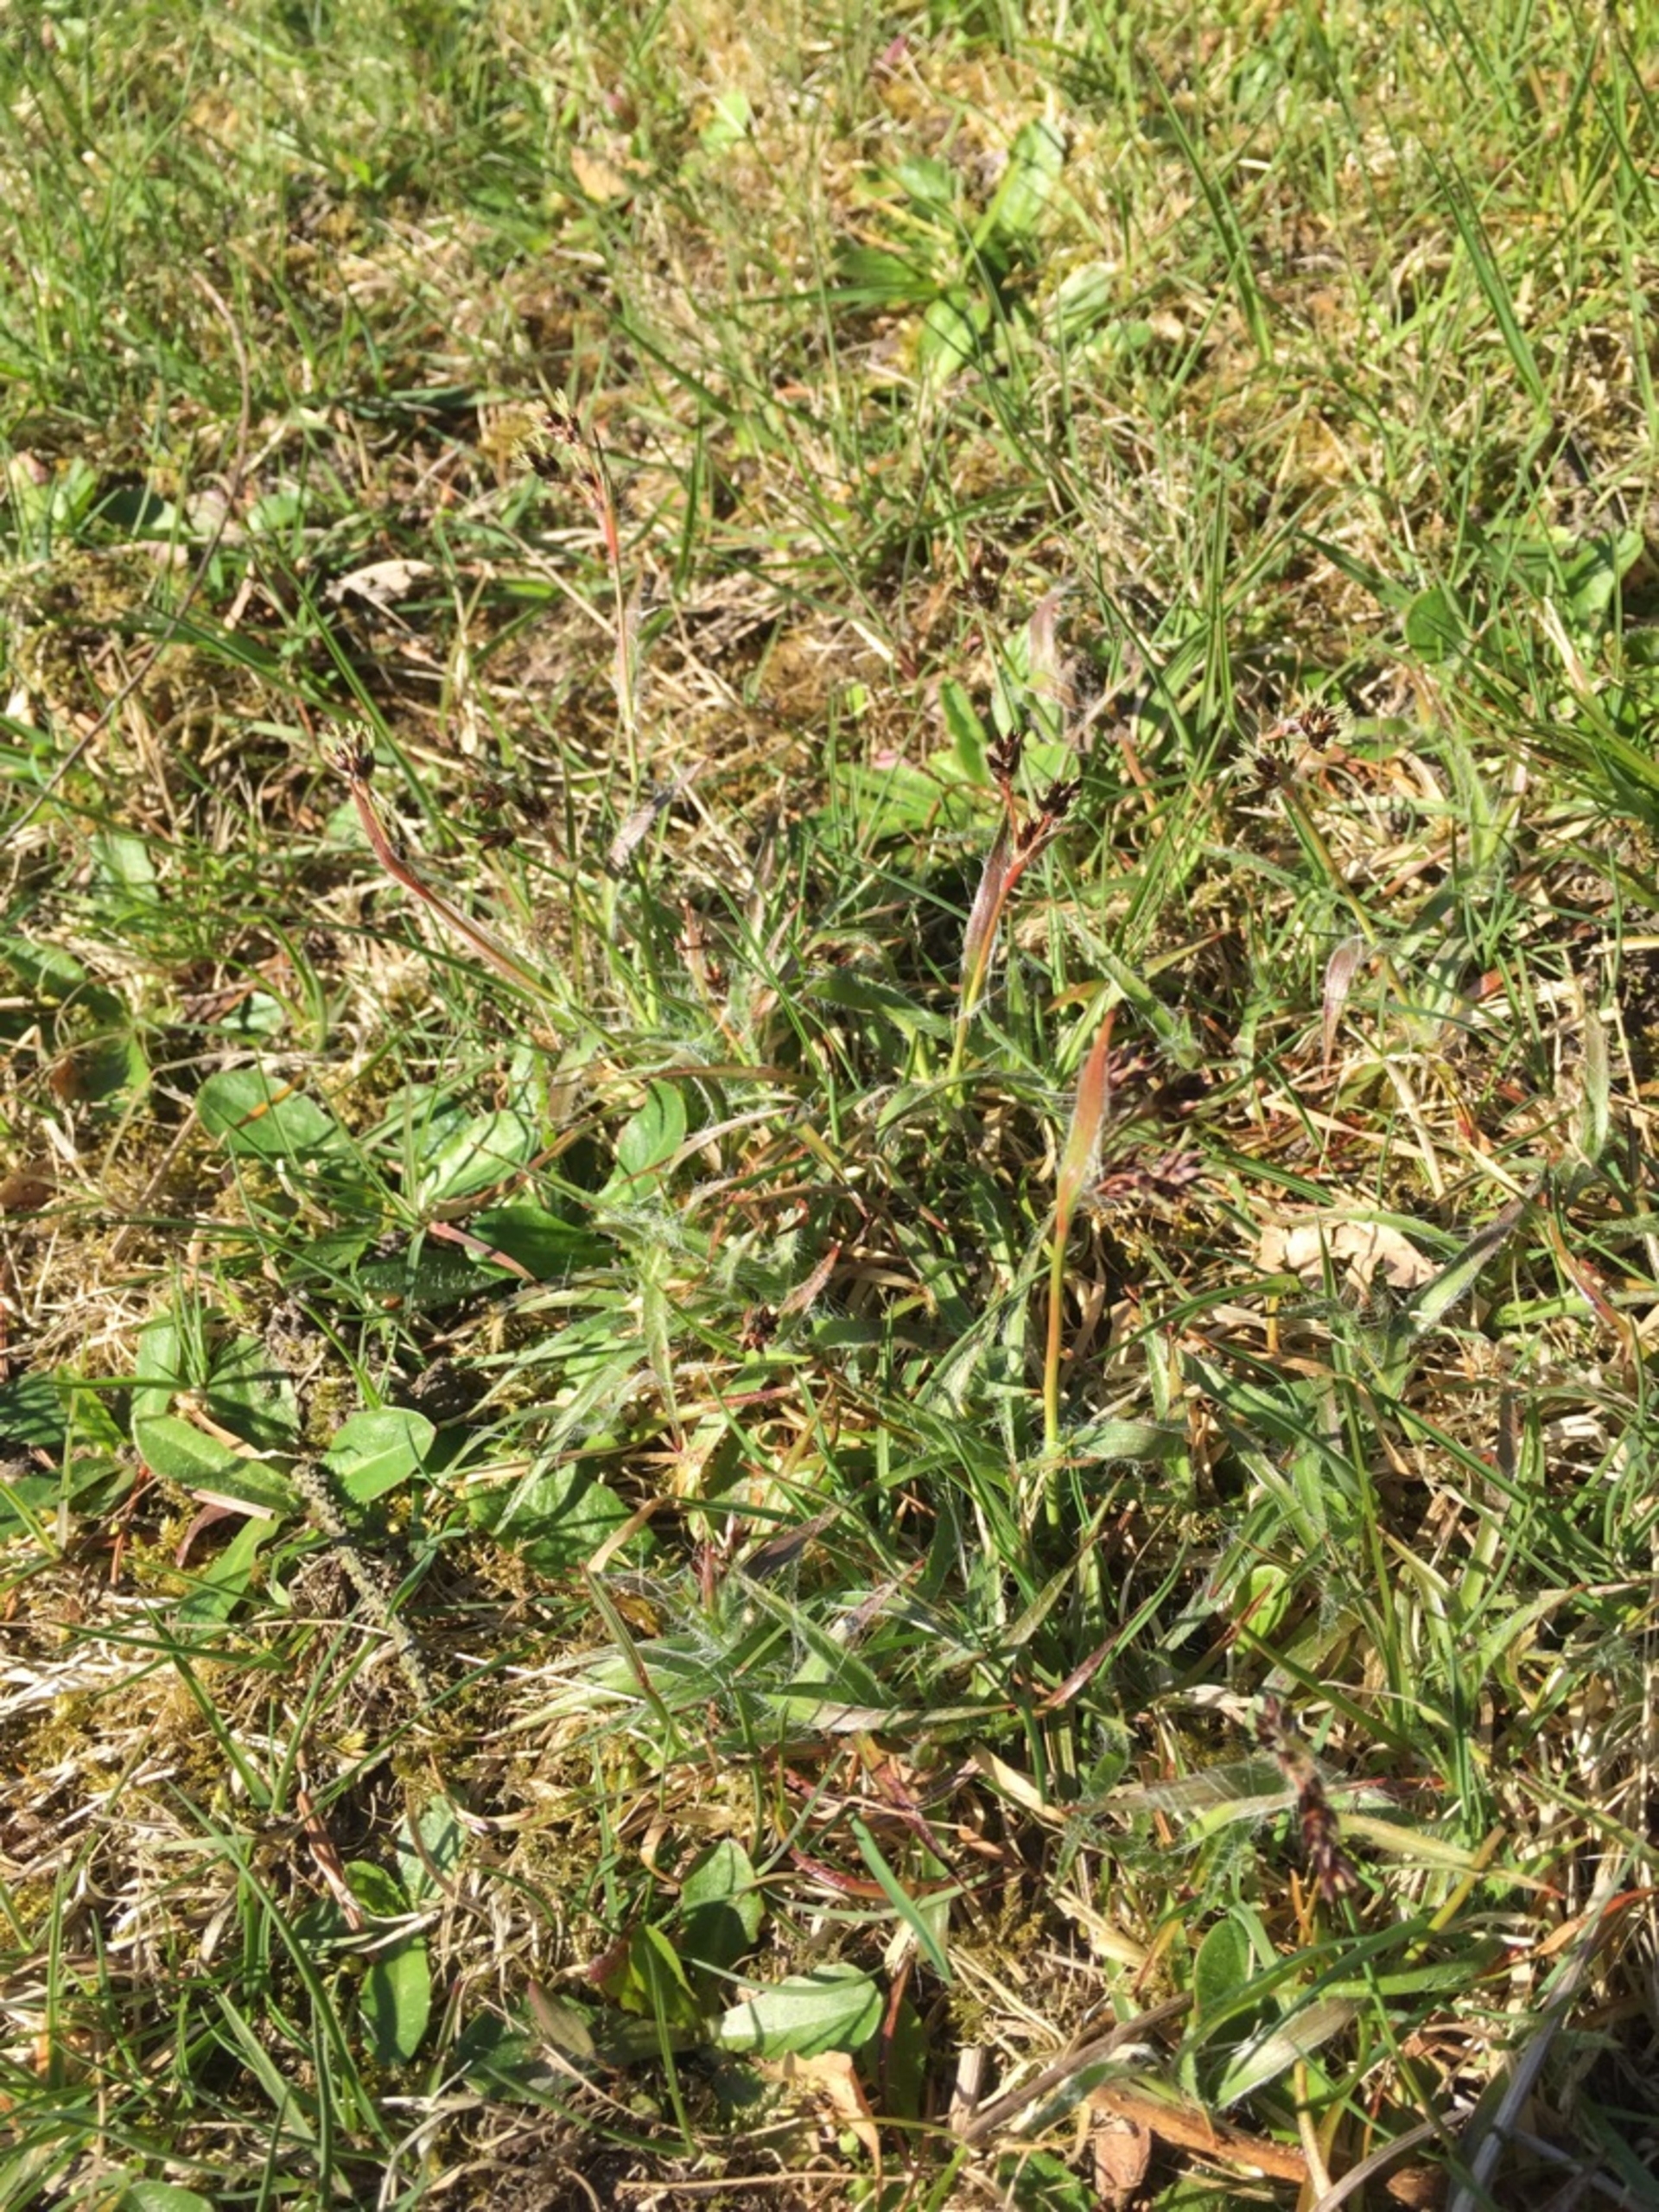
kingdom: Plantae
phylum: Tracheophyta
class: Liliopsida
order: Poales
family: Juncaceae
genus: Luzula
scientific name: Luzula campestris
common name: Mark-frytle
